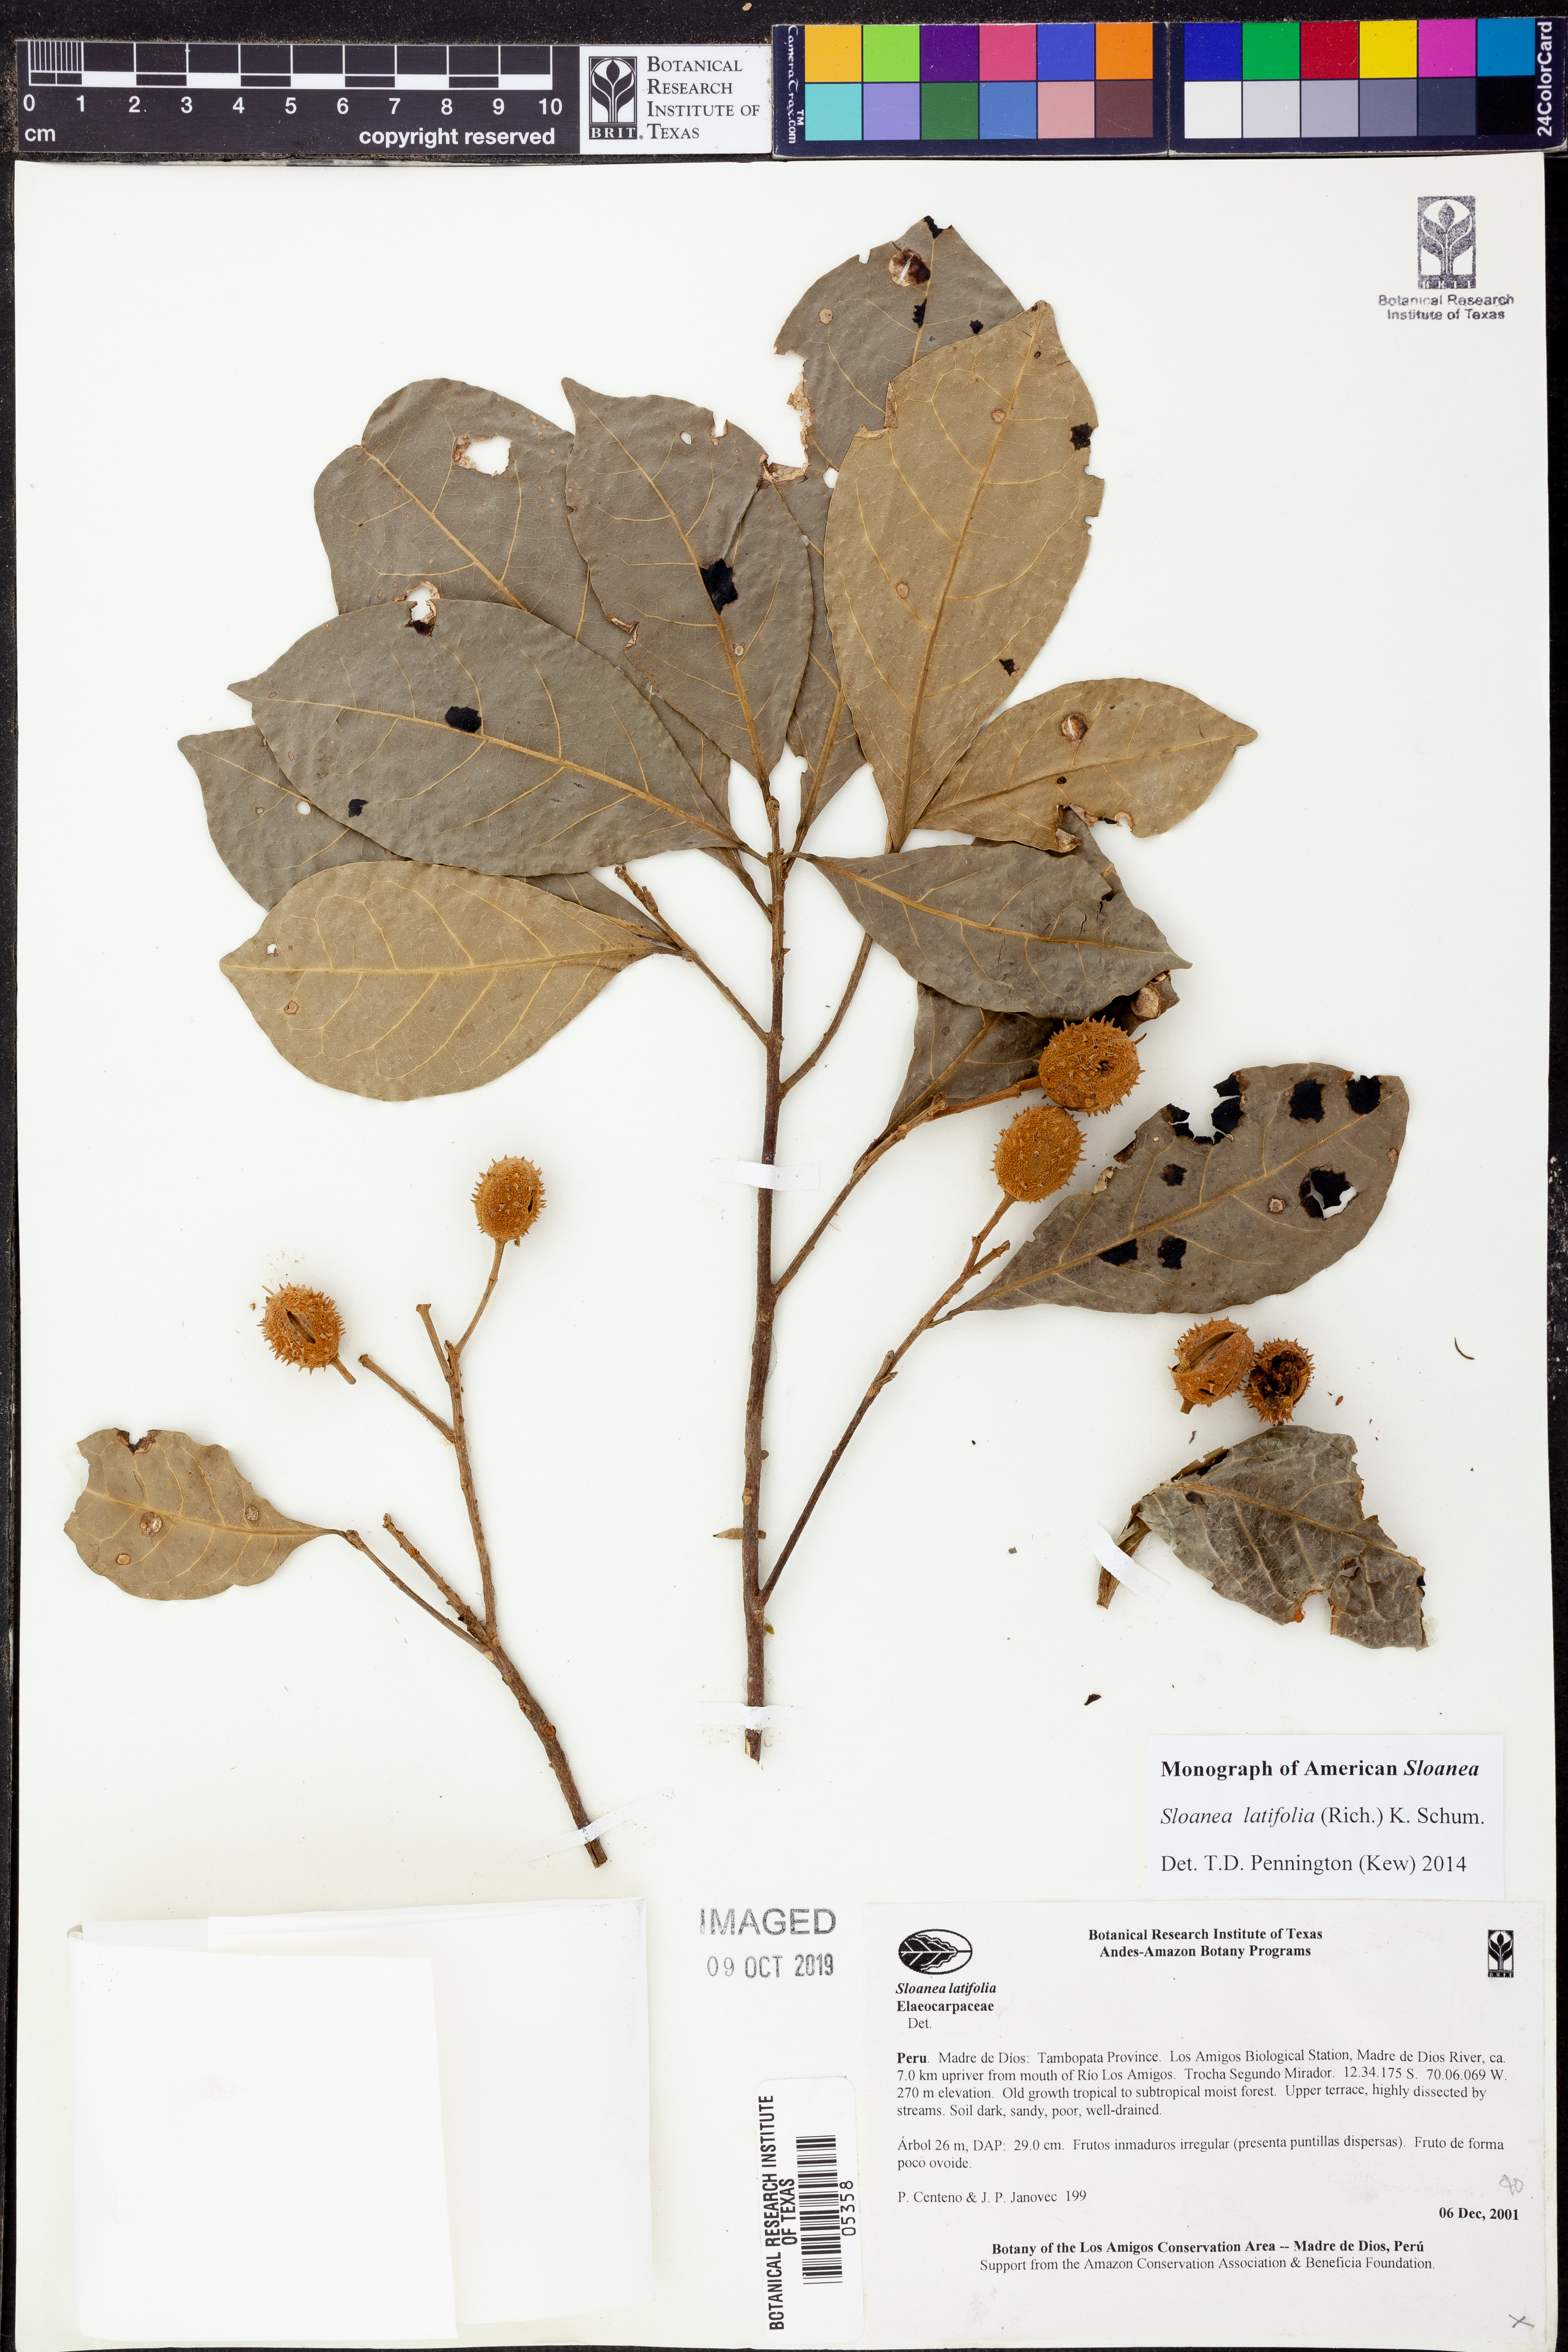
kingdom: Plantae
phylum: Tracheophyta
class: Magnoliopsida
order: Oxalidales
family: Elaeocarpaceae
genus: Sloanea
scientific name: Sloanea
